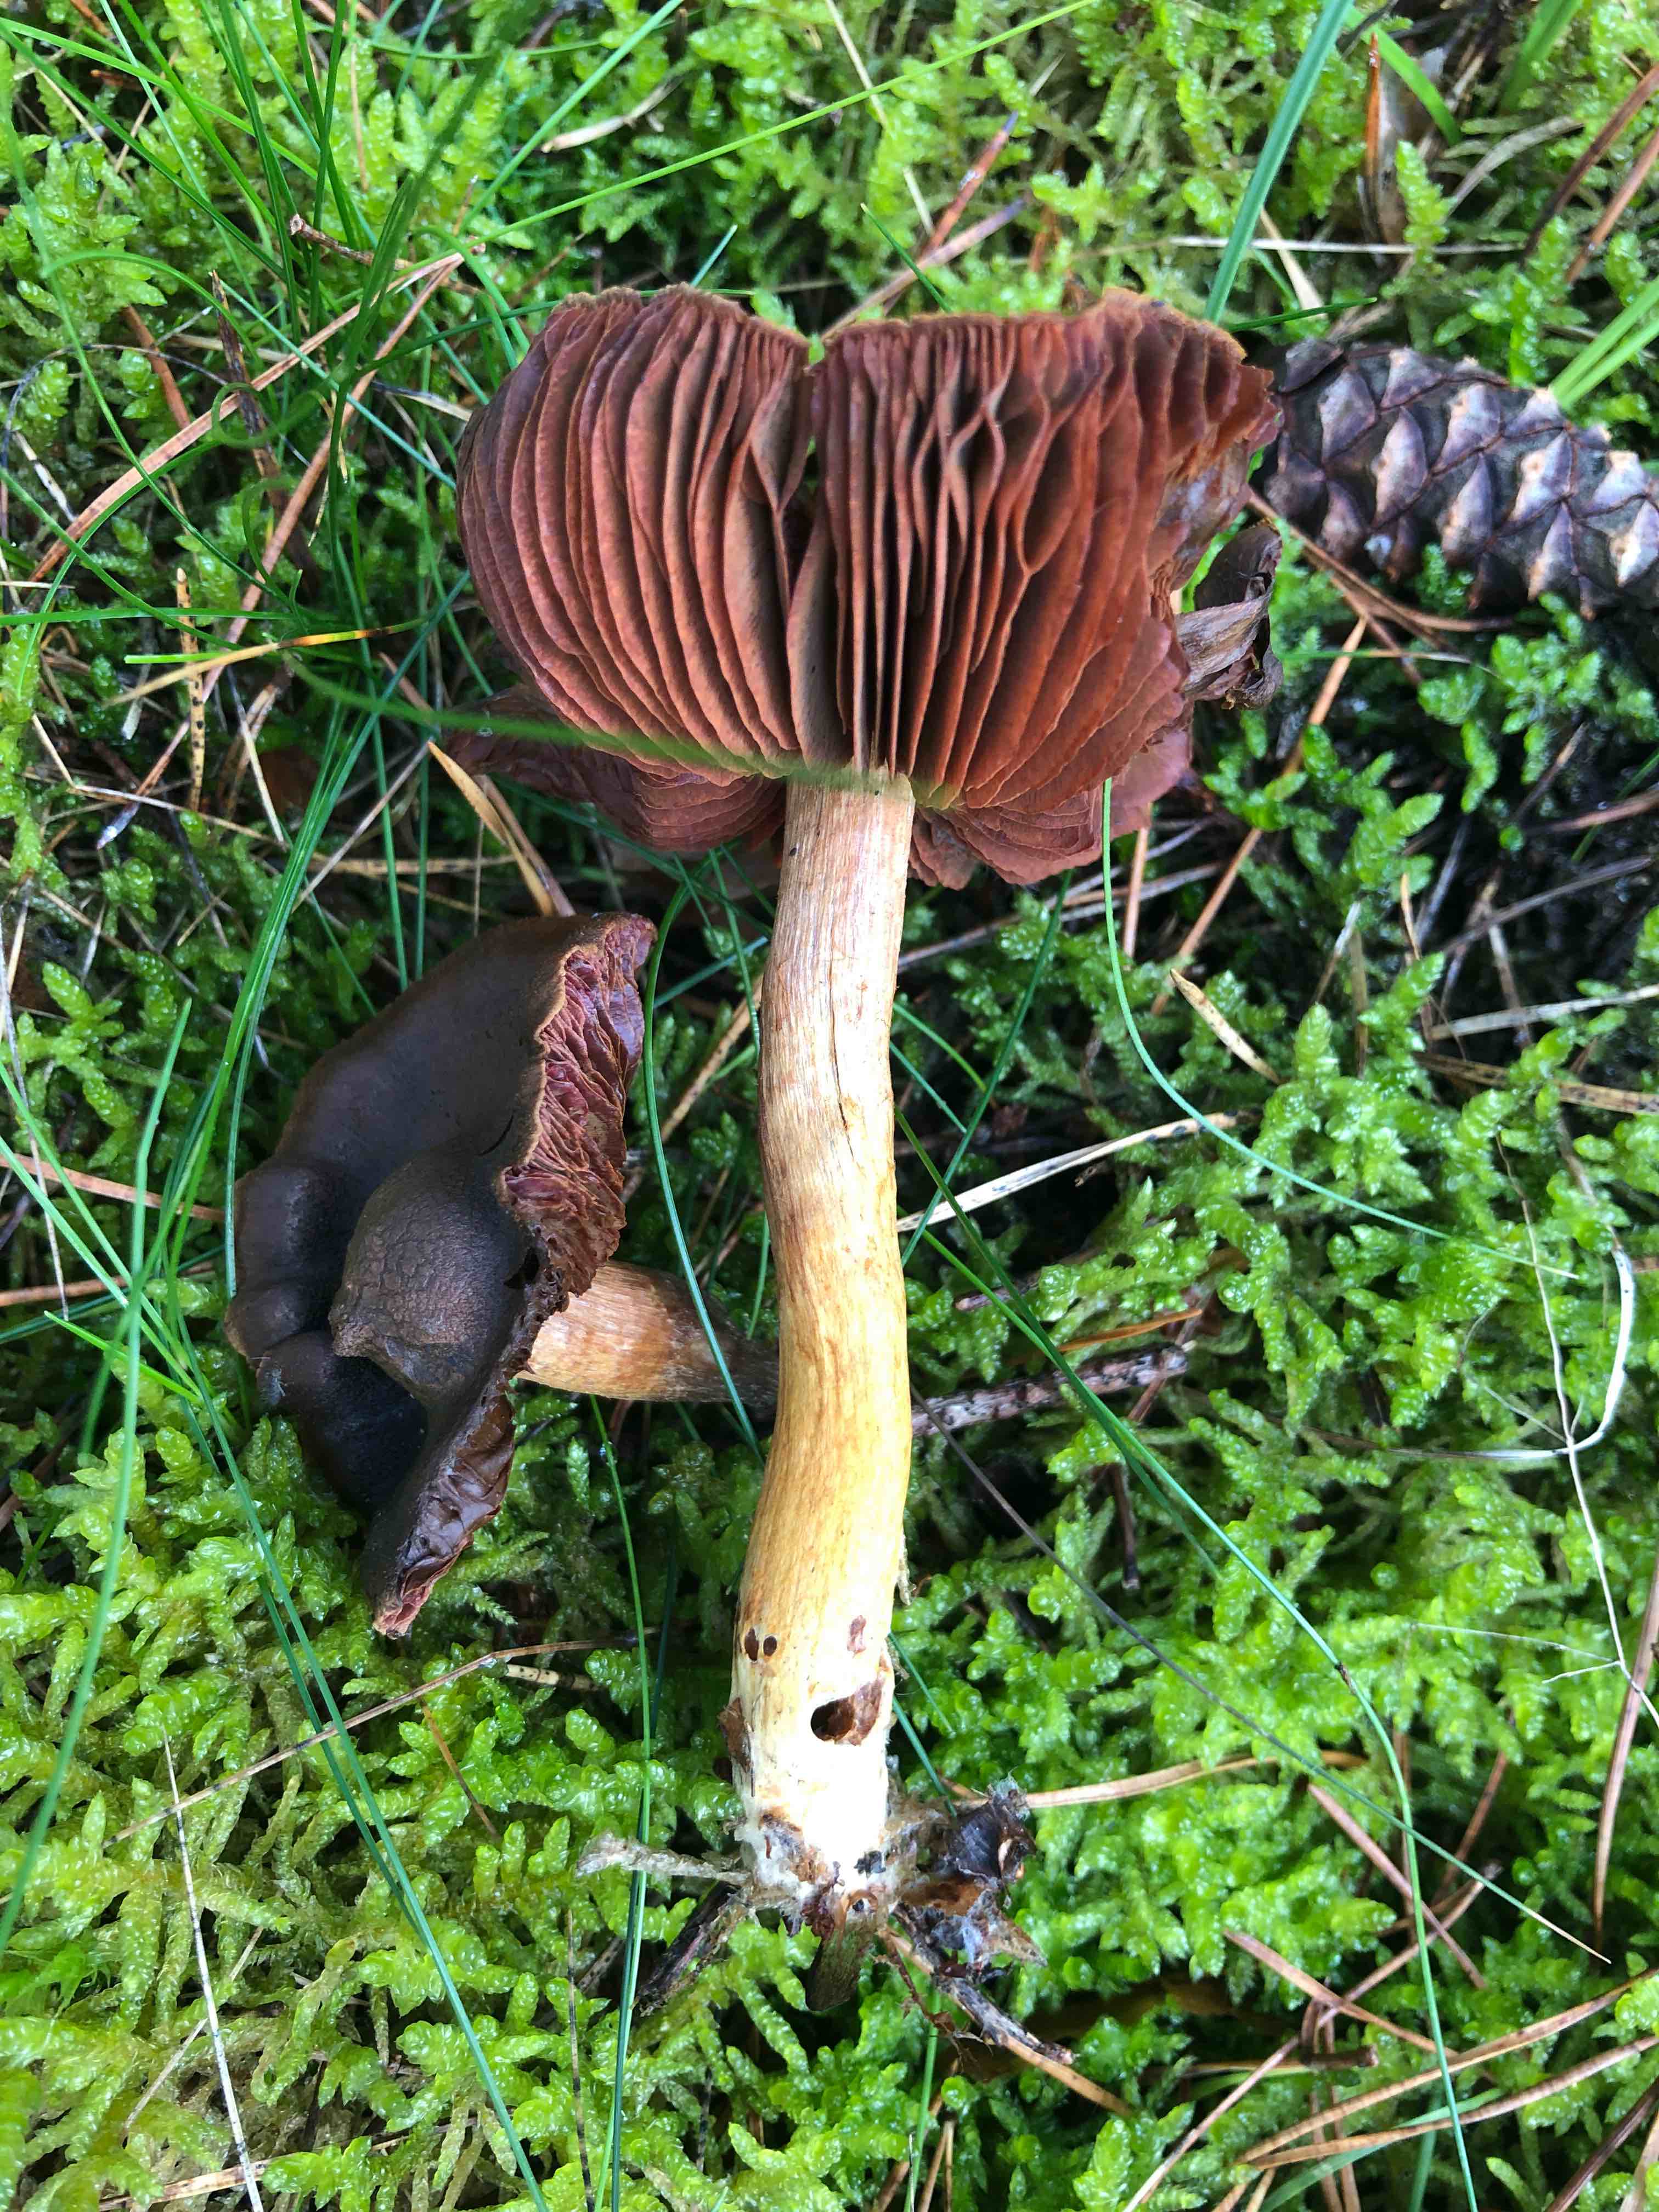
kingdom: Fungi
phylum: Basidiomycota
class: Agaricomycetes
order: Agaricales
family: Cortinariaceae
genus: Cortinarius
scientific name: Cortinarius
